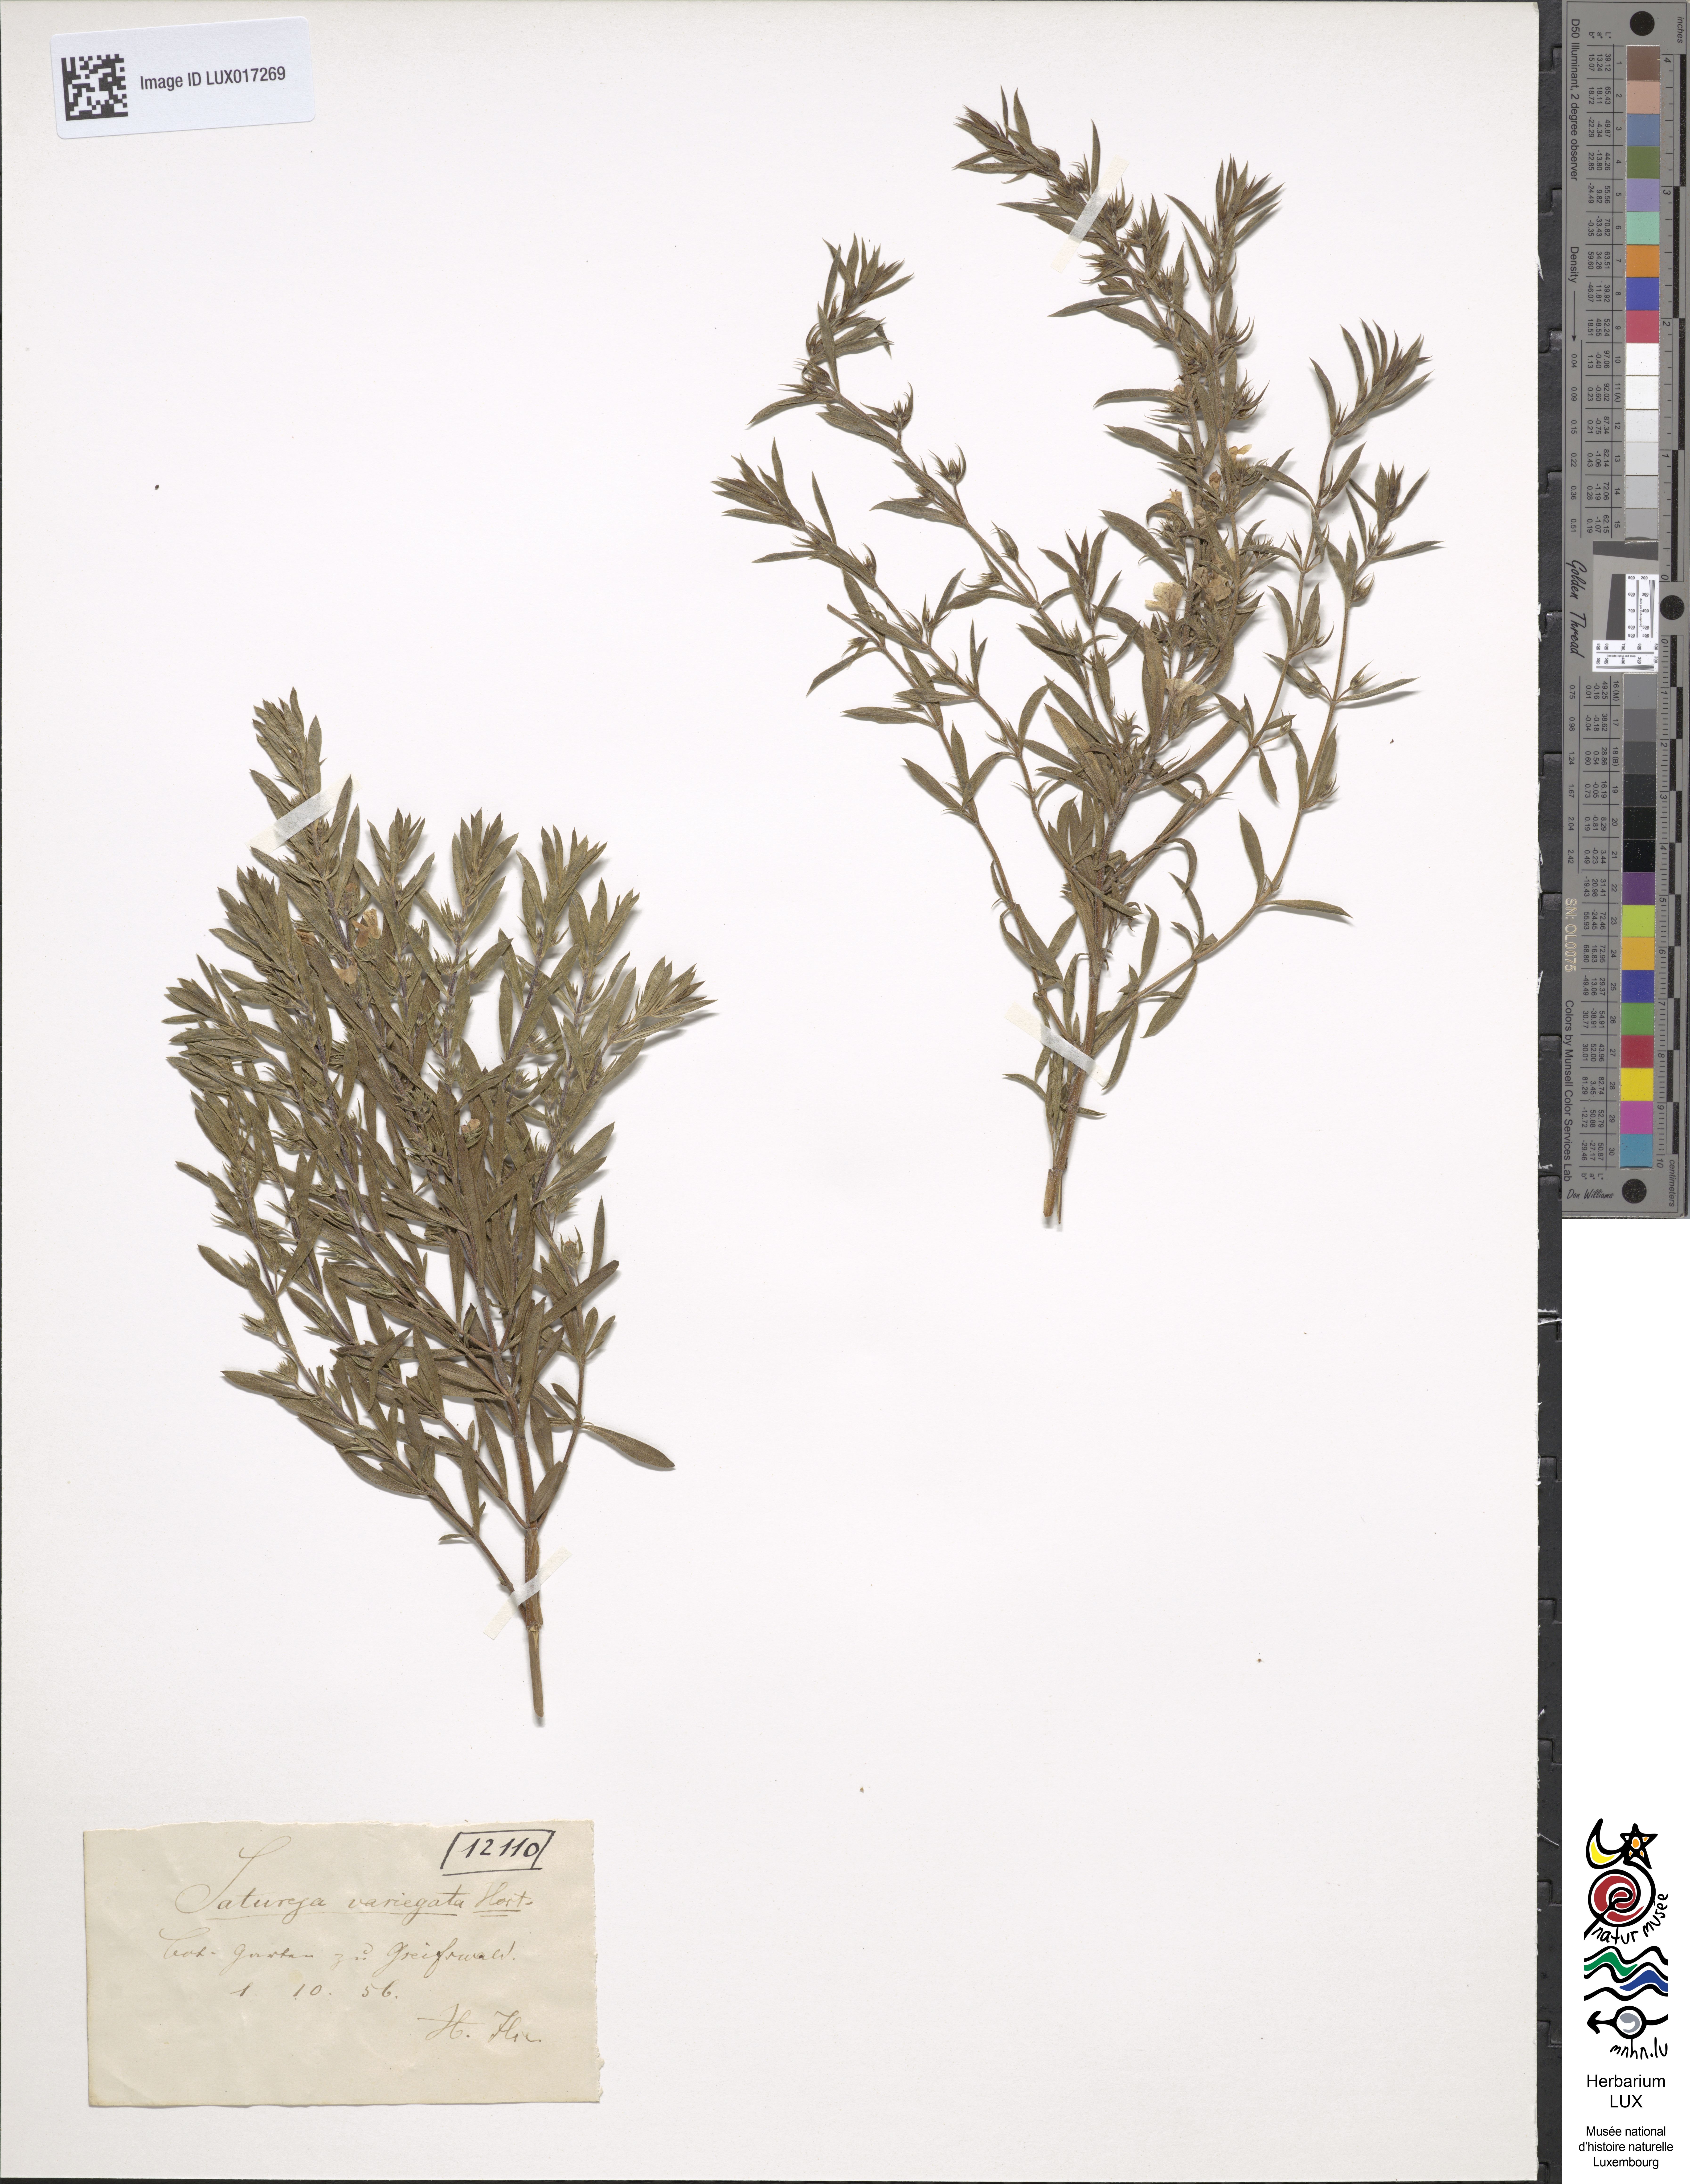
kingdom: Plantae
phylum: Tracheophyta
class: Magnoliopsida
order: Lamiales
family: Lamiaceae
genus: Satureja
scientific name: Satureja montana
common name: Winter savory
